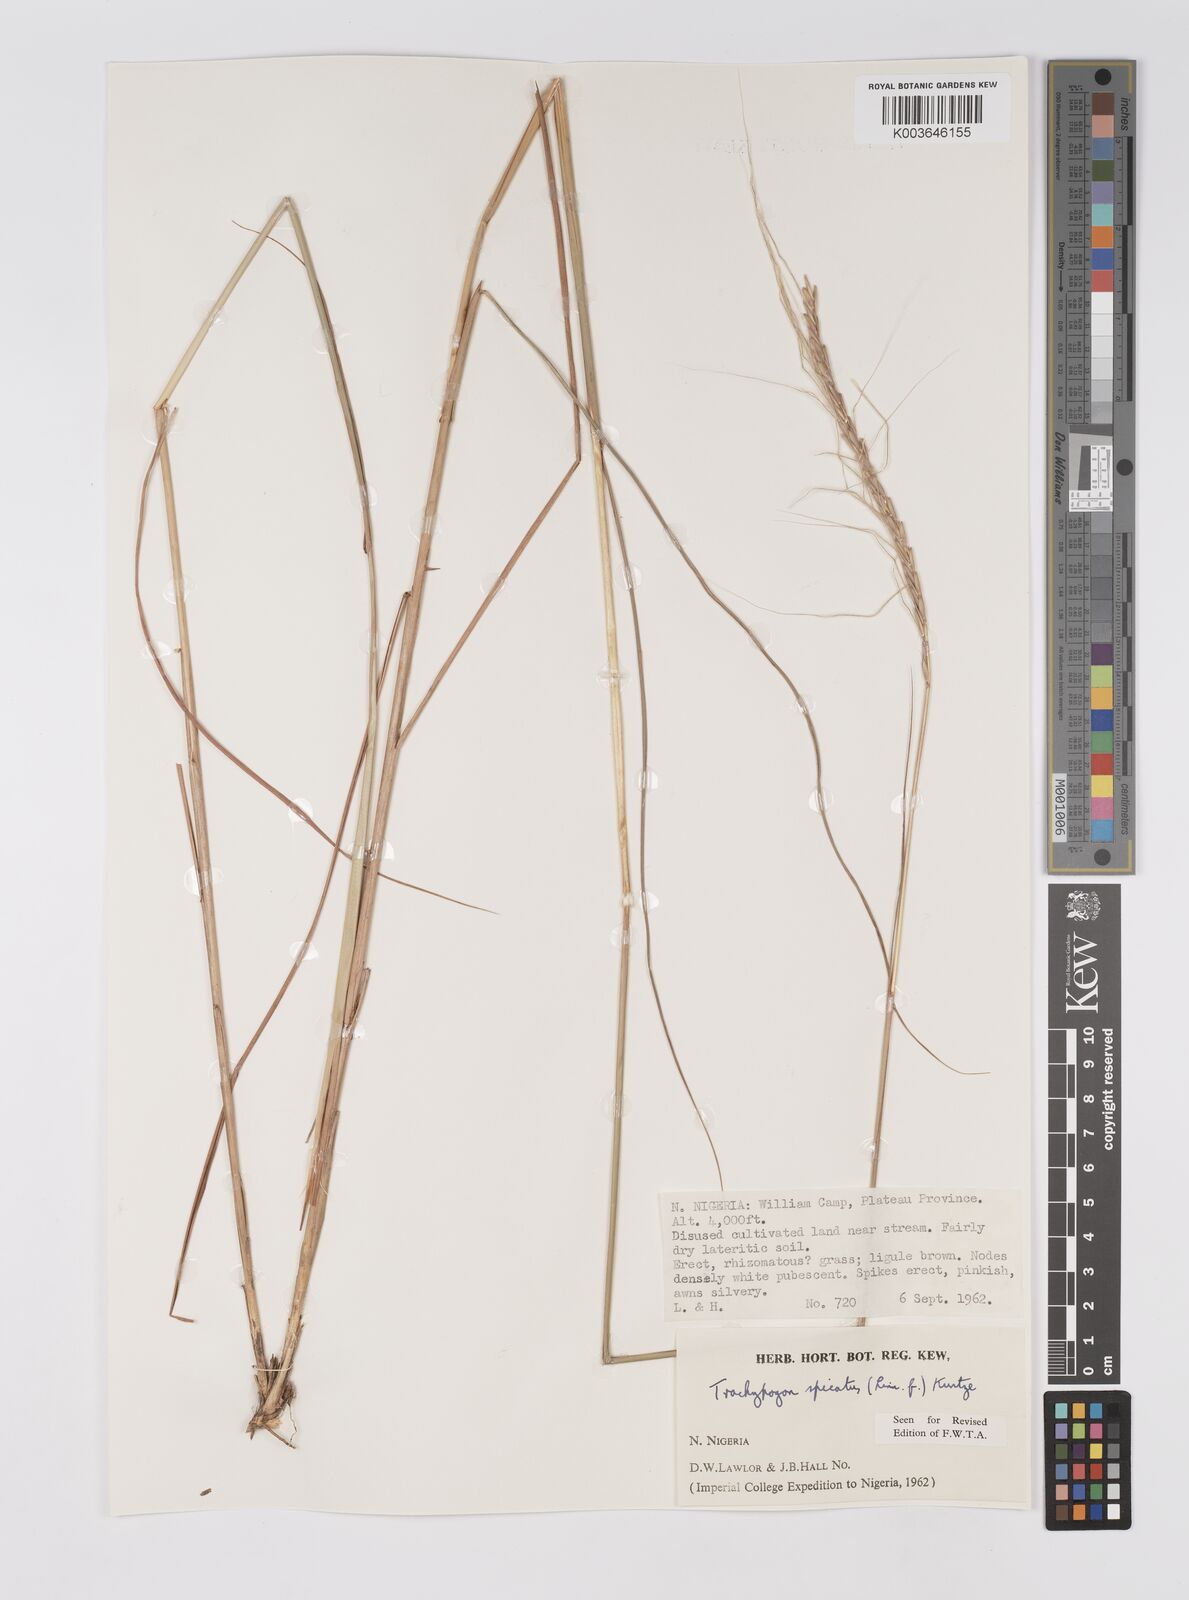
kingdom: Plantae
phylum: Tracheophyta
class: Liliopsida
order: Poales
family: Poaceae
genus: Trachypogon
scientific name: Trachypogon spicatus
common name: Crinkle-awn
